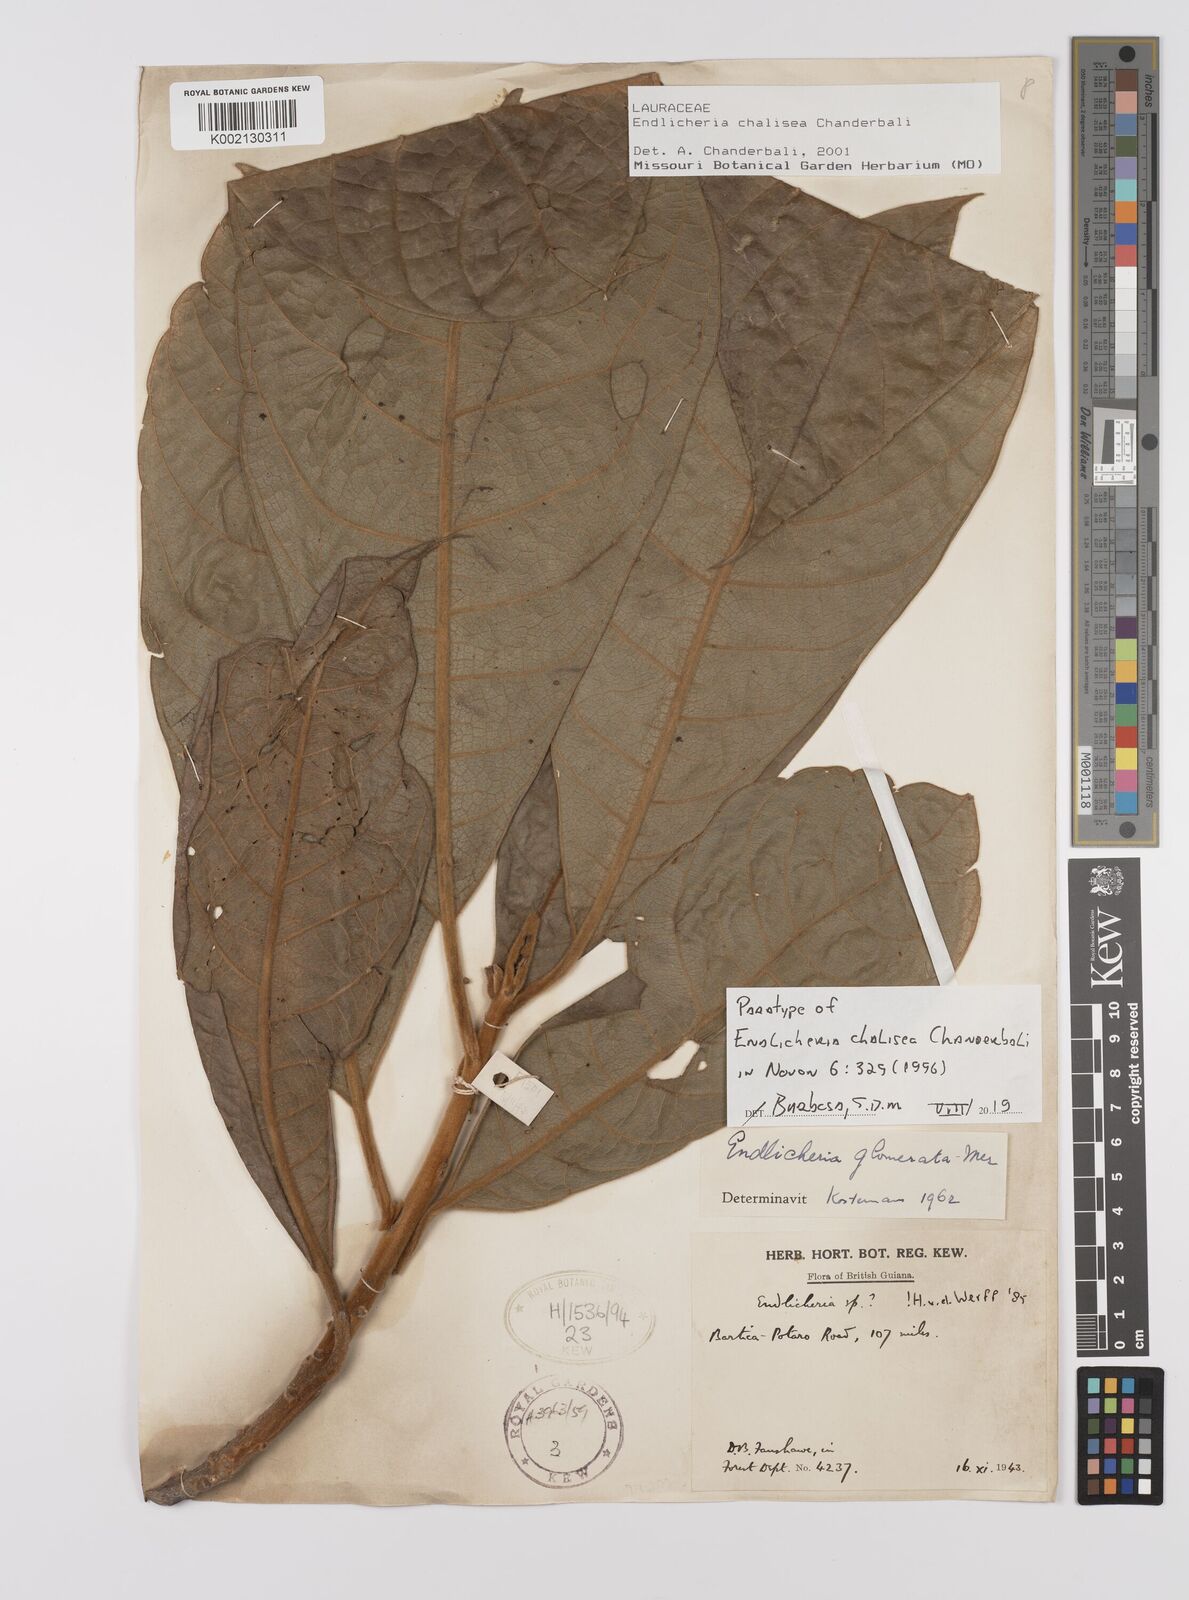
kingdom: Plantae
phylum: Tracheophyta
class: Magnoliopsida
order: Laurales
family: Lauraceae
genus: Endlicheria
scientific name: Endlicheria chalisea
